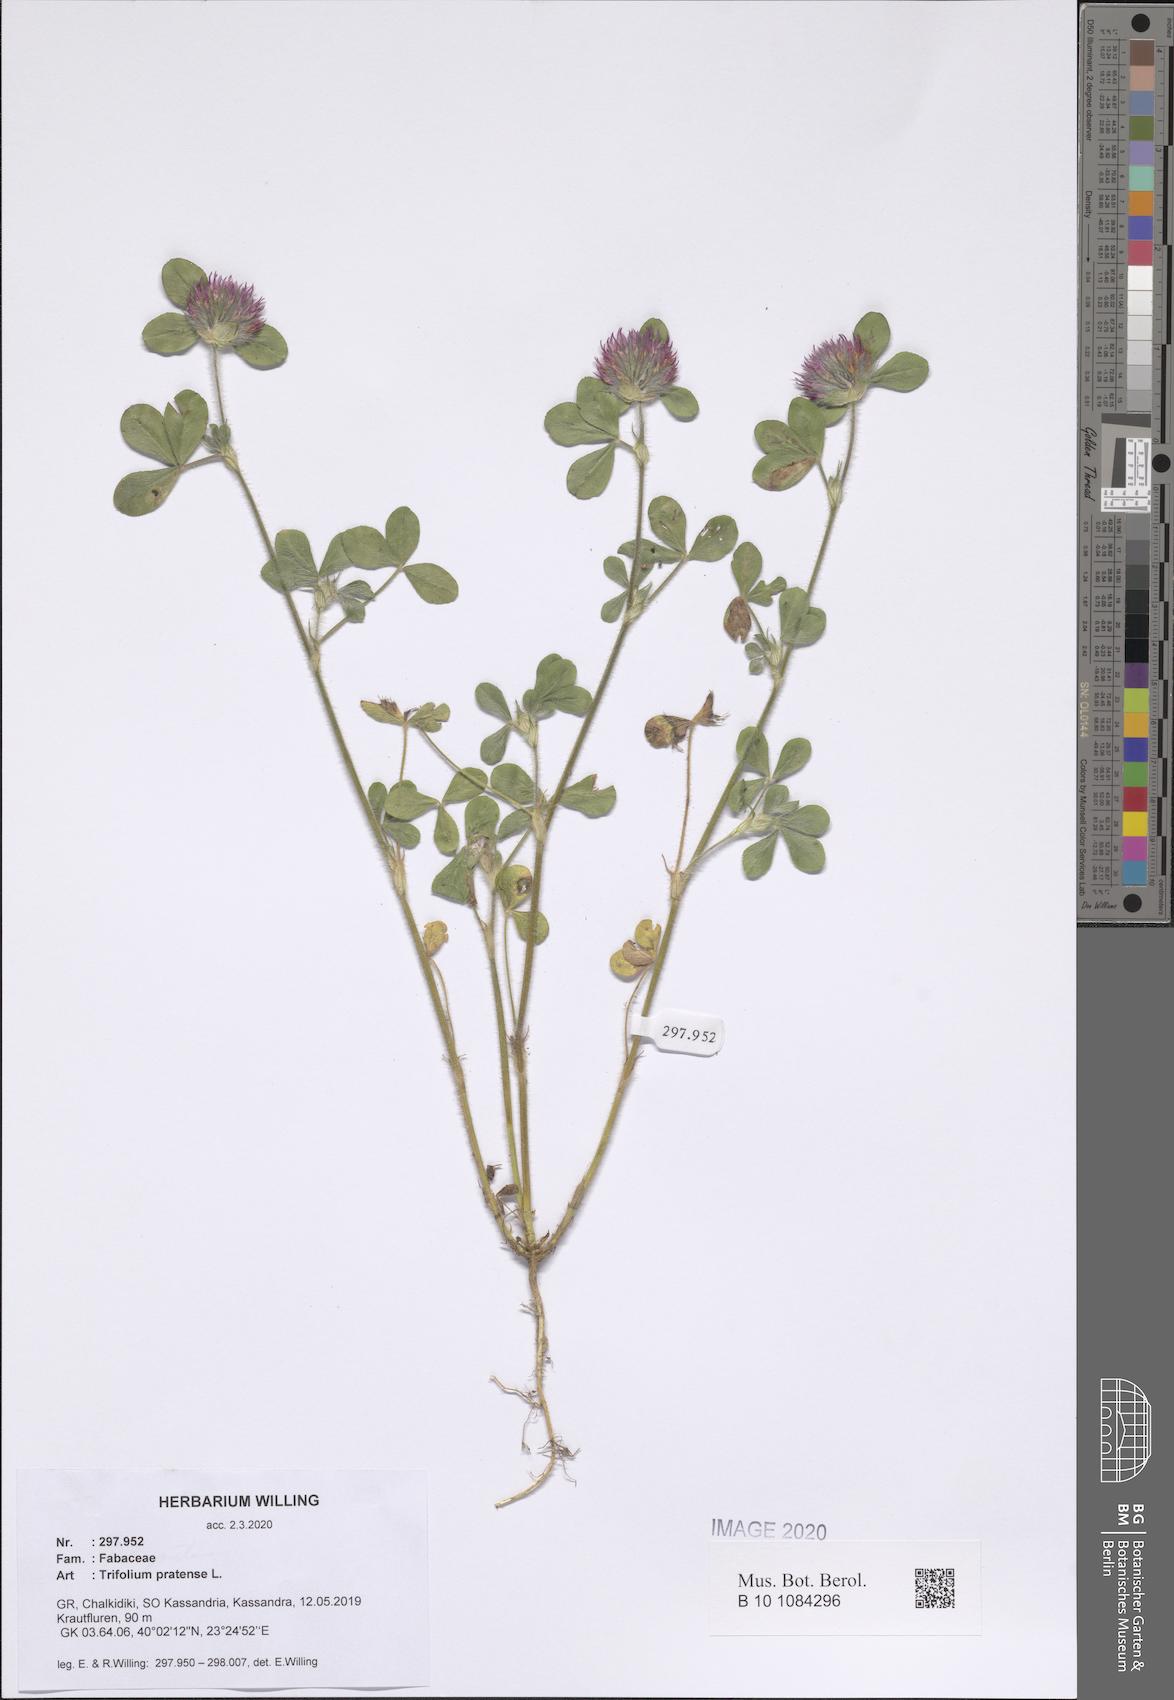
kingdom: Plantae
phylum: Tracheophyta
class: Magnoliopsida
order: Fabales
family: Fabaceae
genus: Trifolium
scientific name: Trifolium pratense
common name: Red clover
